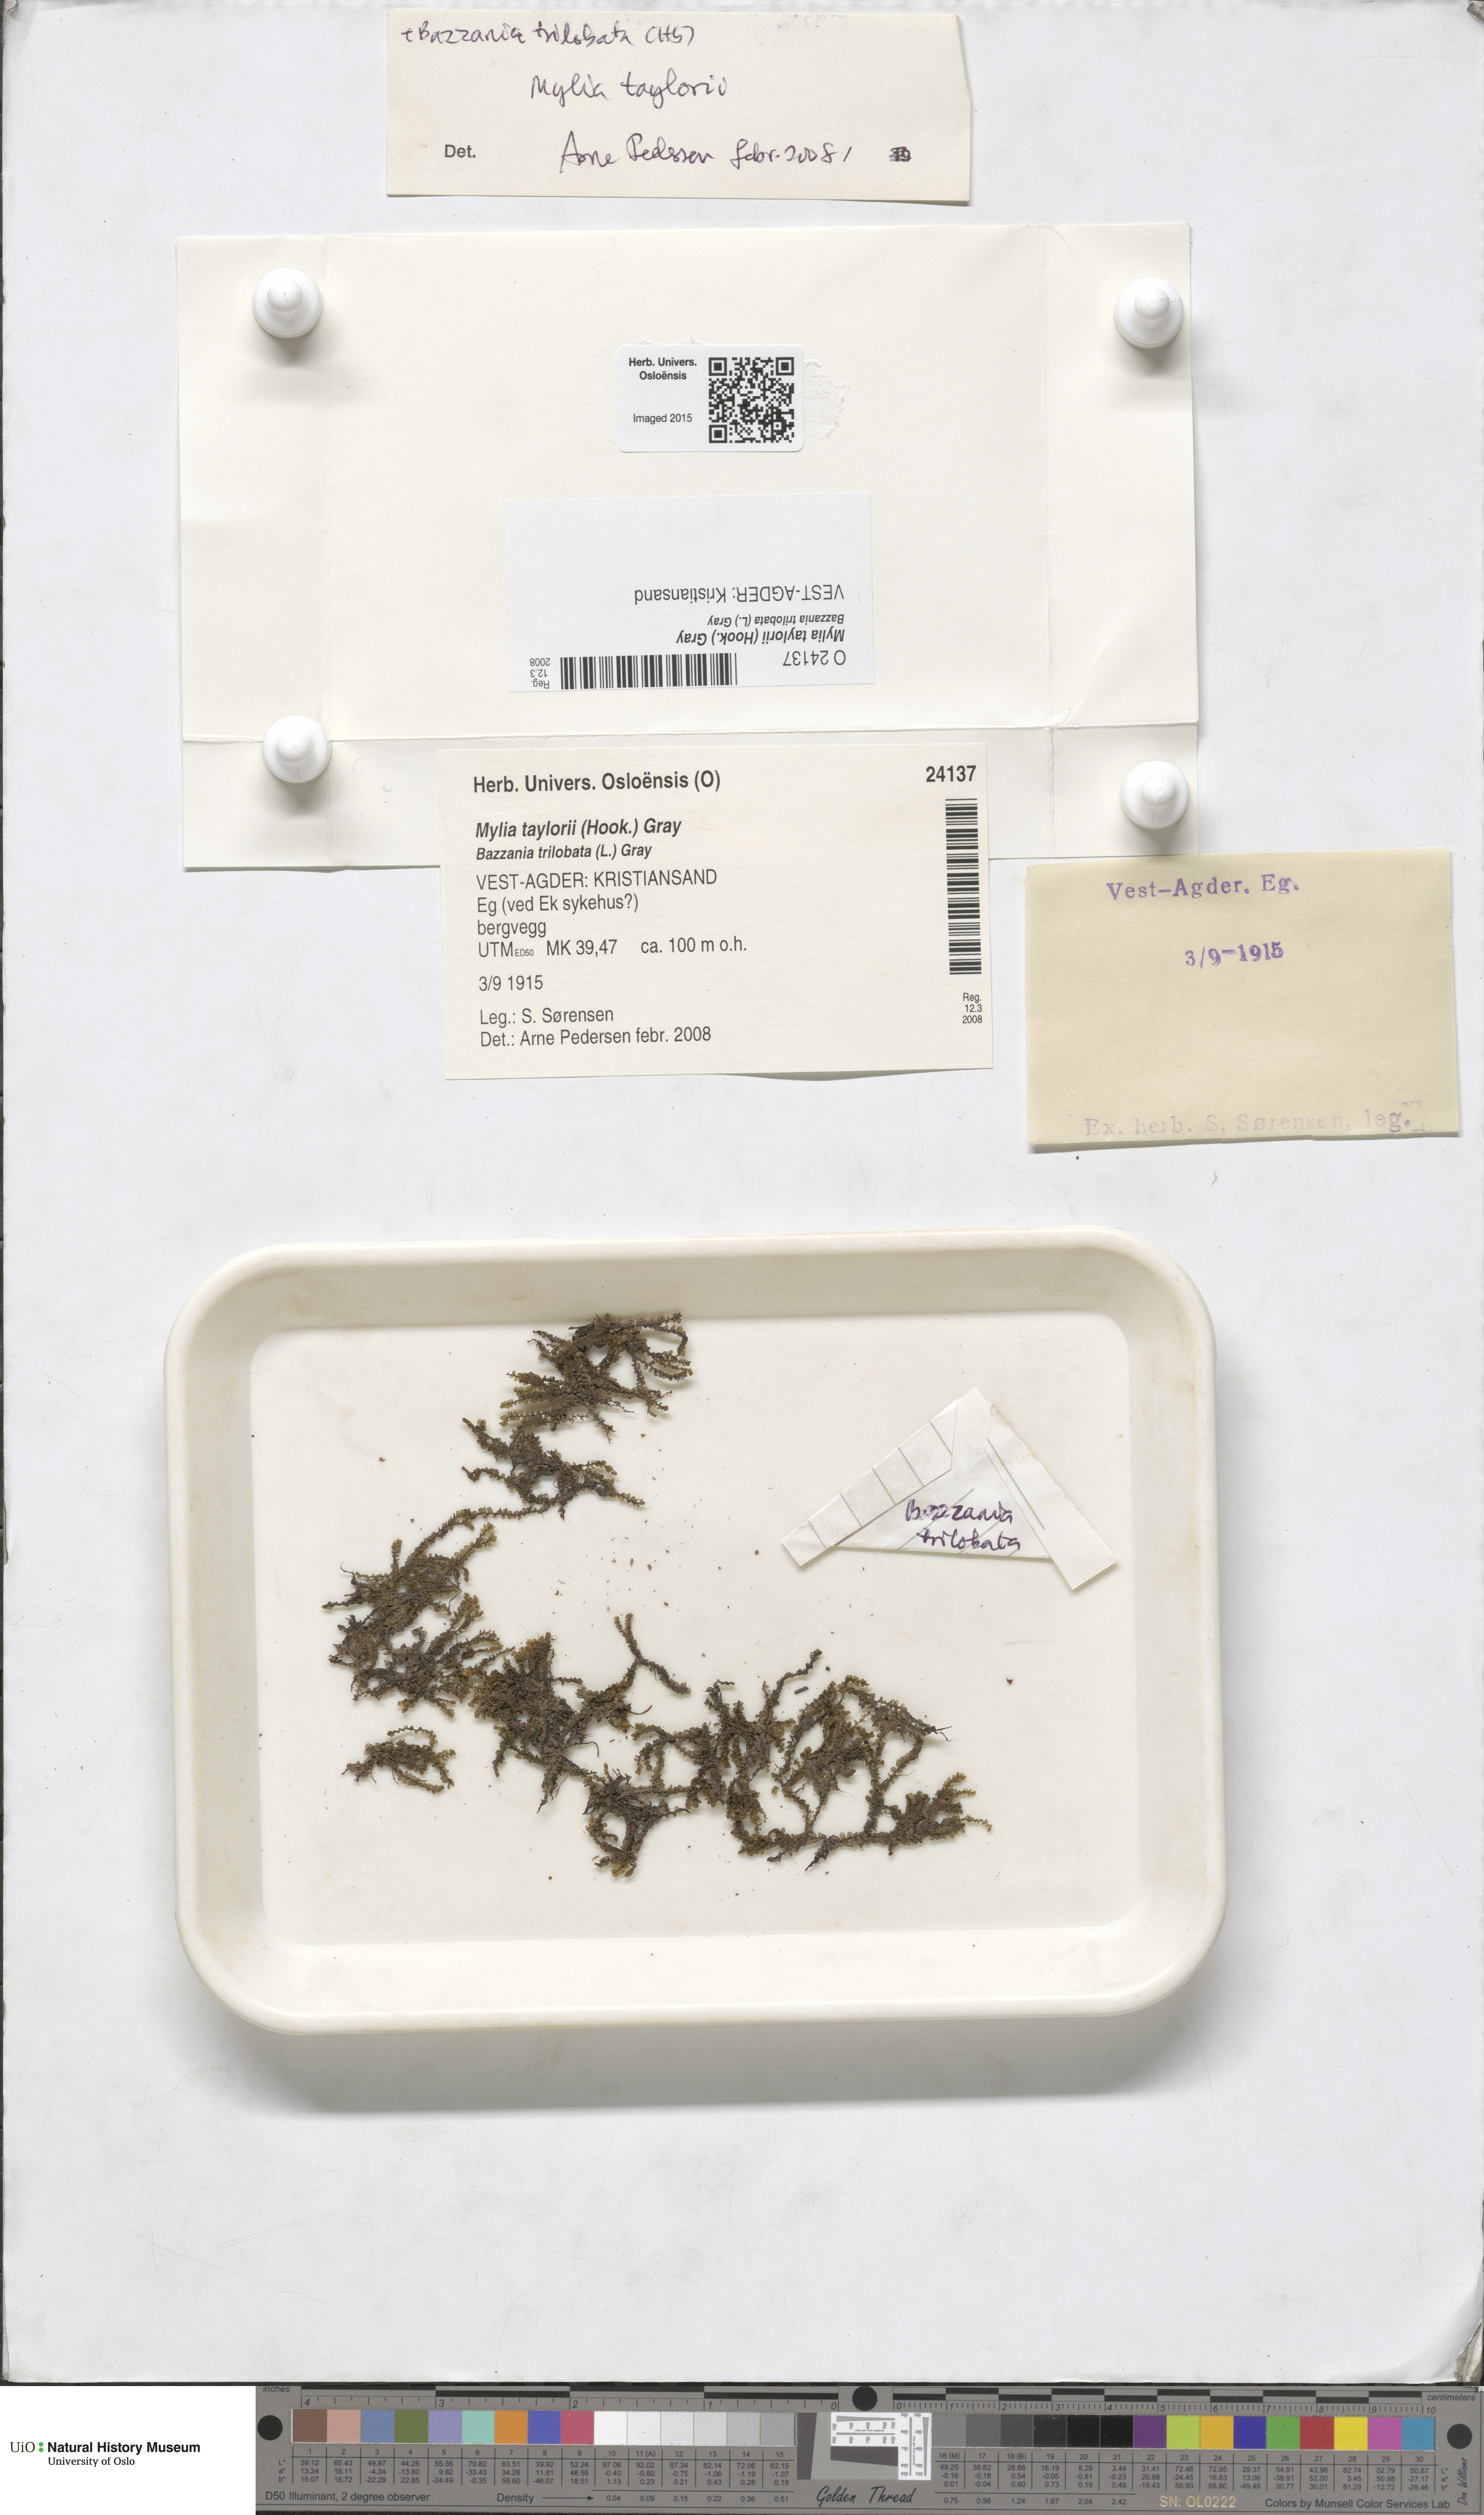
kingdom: Plantae
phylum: Marchantiophyta
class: Jungermanniopsida
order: Jungermanniales
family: Myliaceae
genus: Mylia
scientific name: Mylia taylorii
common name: Taylor s flapwort
